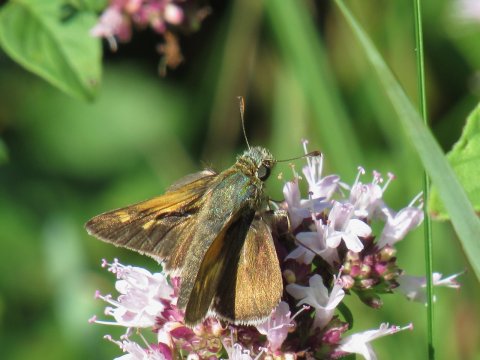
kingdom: Animalia
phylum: Arthropoda
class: Insecta
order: Lepidoptera
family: Hesperiidae
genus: Polites
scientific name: Polites themistocles
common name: Tawny-edged Skipper
